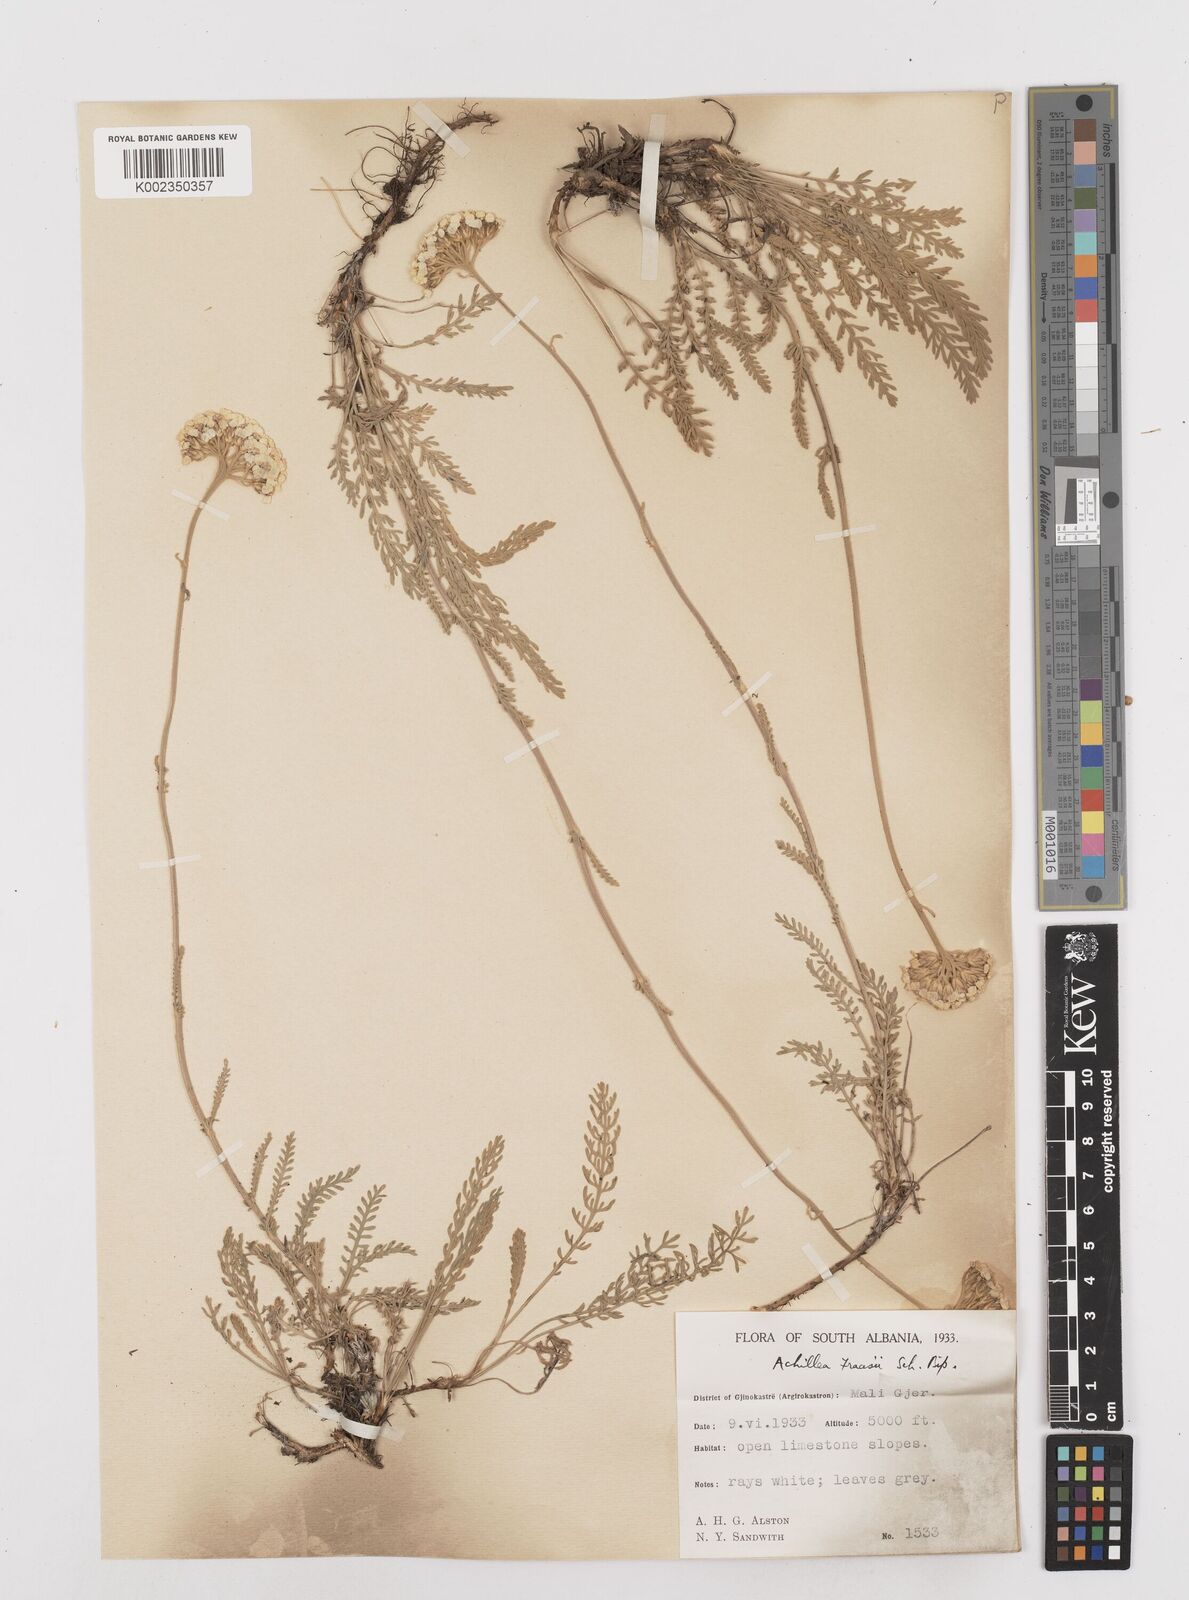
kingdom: Plantae
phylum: Tracheophyta
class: Magnoliopsida
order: Asterales
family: Asteraceae
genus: Achillea
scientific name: Achillea fraasii
